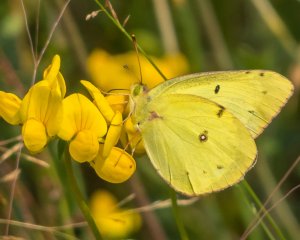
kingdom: Animalia
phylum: Arthropoda
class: Insecta
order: Lepidoptera
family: Pieridae
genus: Colias
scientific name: Colias philodice
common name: Clouded Sulphur
